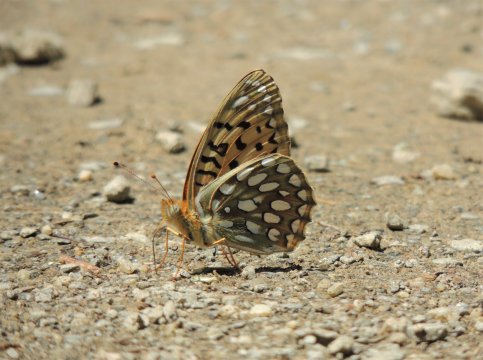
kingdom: Animalia
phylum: Arthropoda
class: Insecta
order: Lepidoptera
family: Nymphalidae
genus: Speyeria
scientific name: Speyeria callippe
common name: Callippe Fritillary
